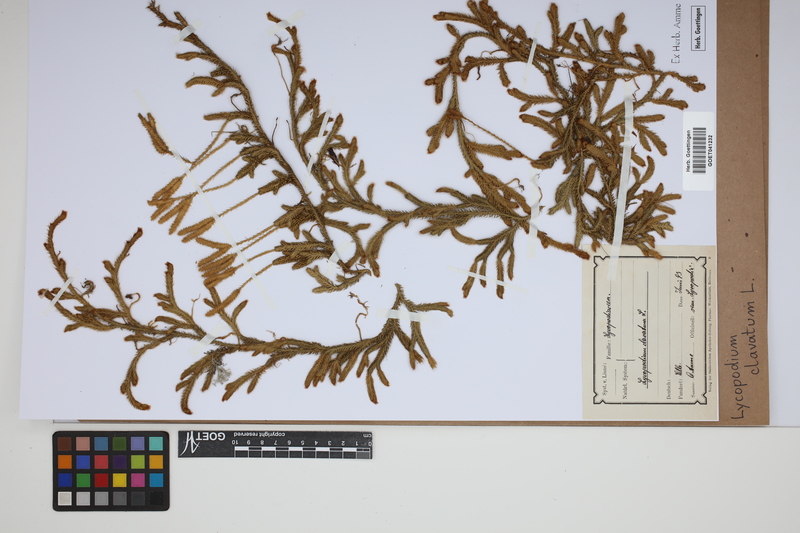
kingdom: Plantae
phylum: Tracheophyta
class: Lycopodiopsida
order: Lycopodiales
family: Lycopodiaceae
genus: Lycopodium
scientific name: Lycopodium clavatum
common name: Stag's-horn clubmoss
